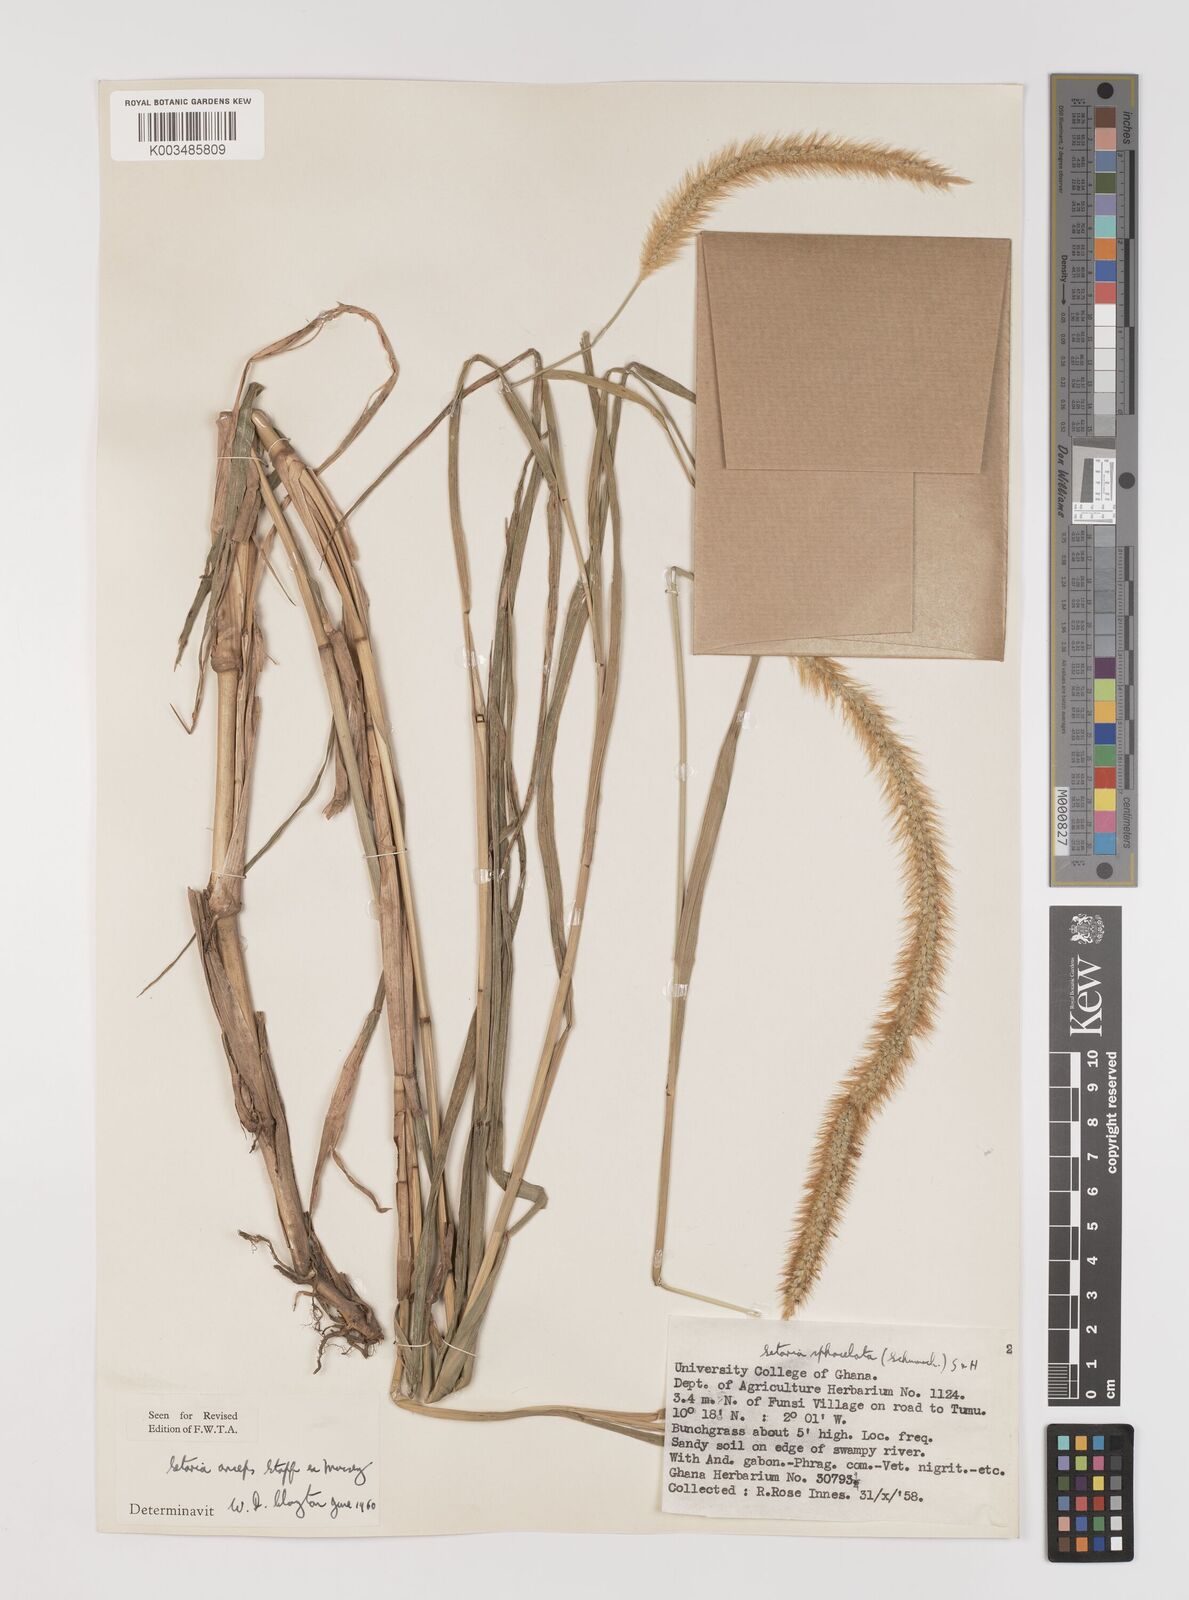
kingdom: Plantae
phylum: Tracheophyta
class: Liliopsida
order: Poales
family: Poaceae
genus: Setaria
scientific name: Setaria sphacelata
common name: African bristlegrass
